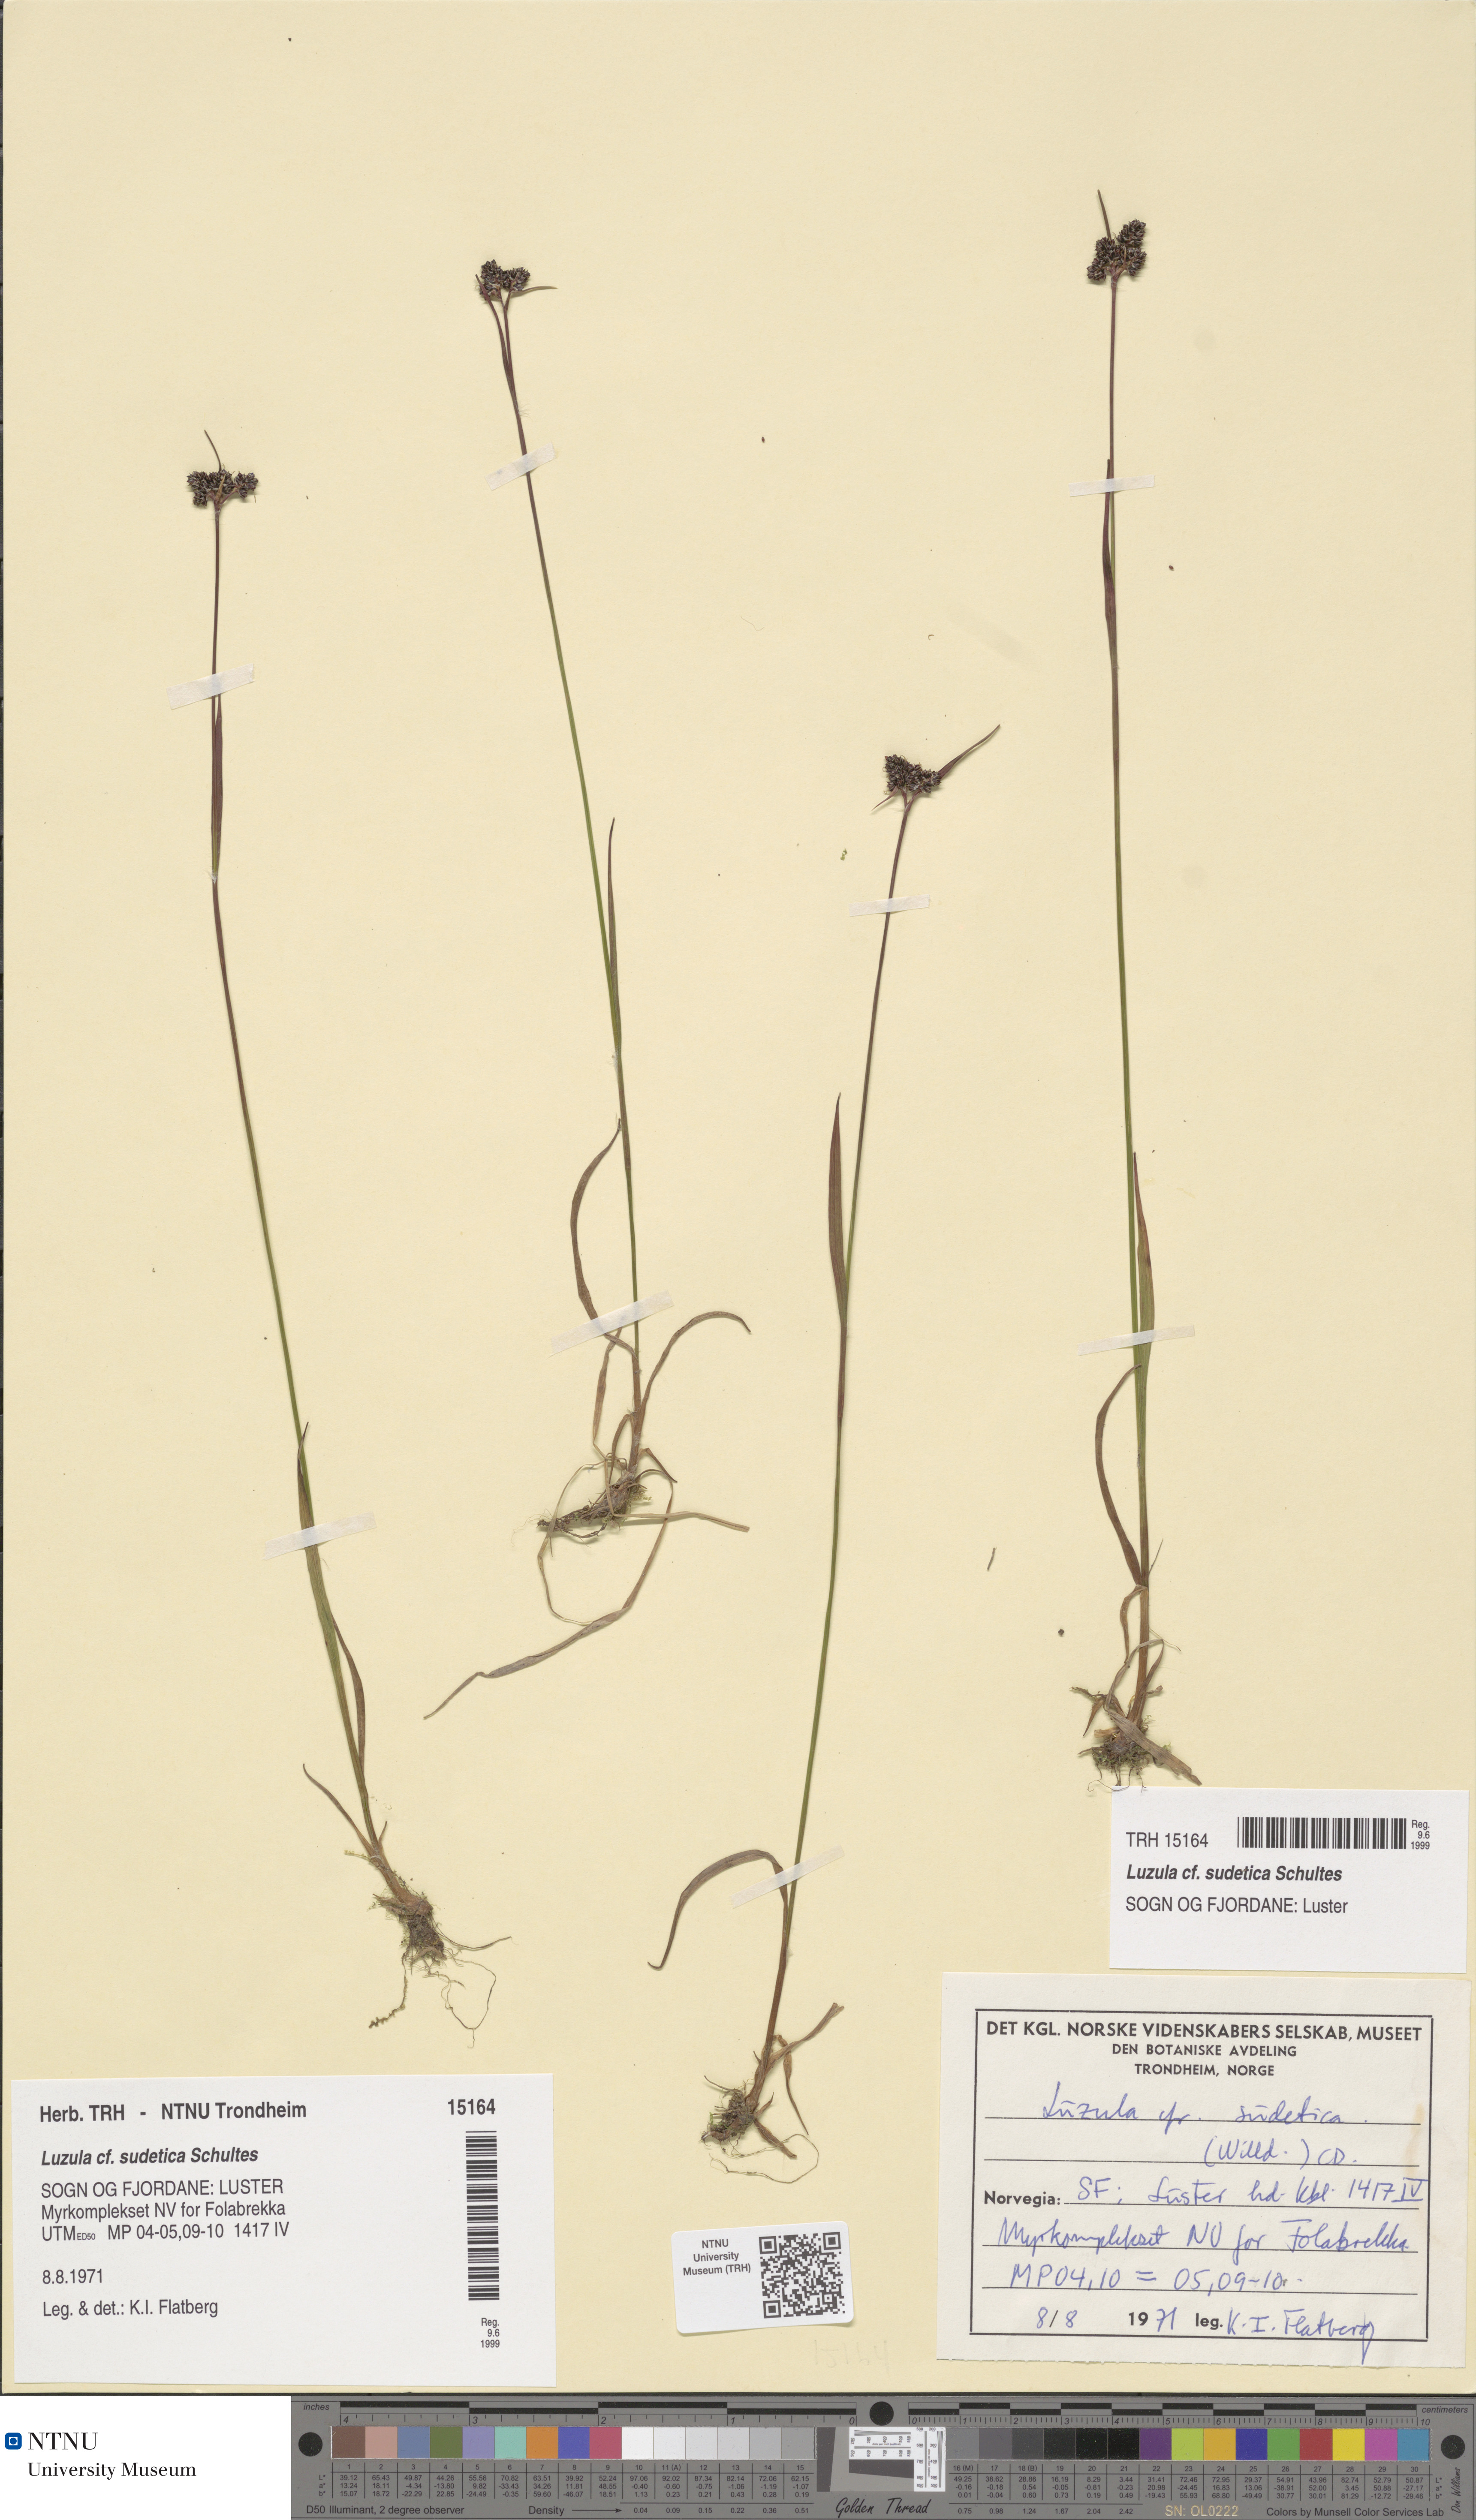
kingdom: Plantae
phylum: Tracheophyta
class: Liliopsida
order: Poales
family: Juncaceae
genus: Luzula
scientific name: Luzula sudetica
